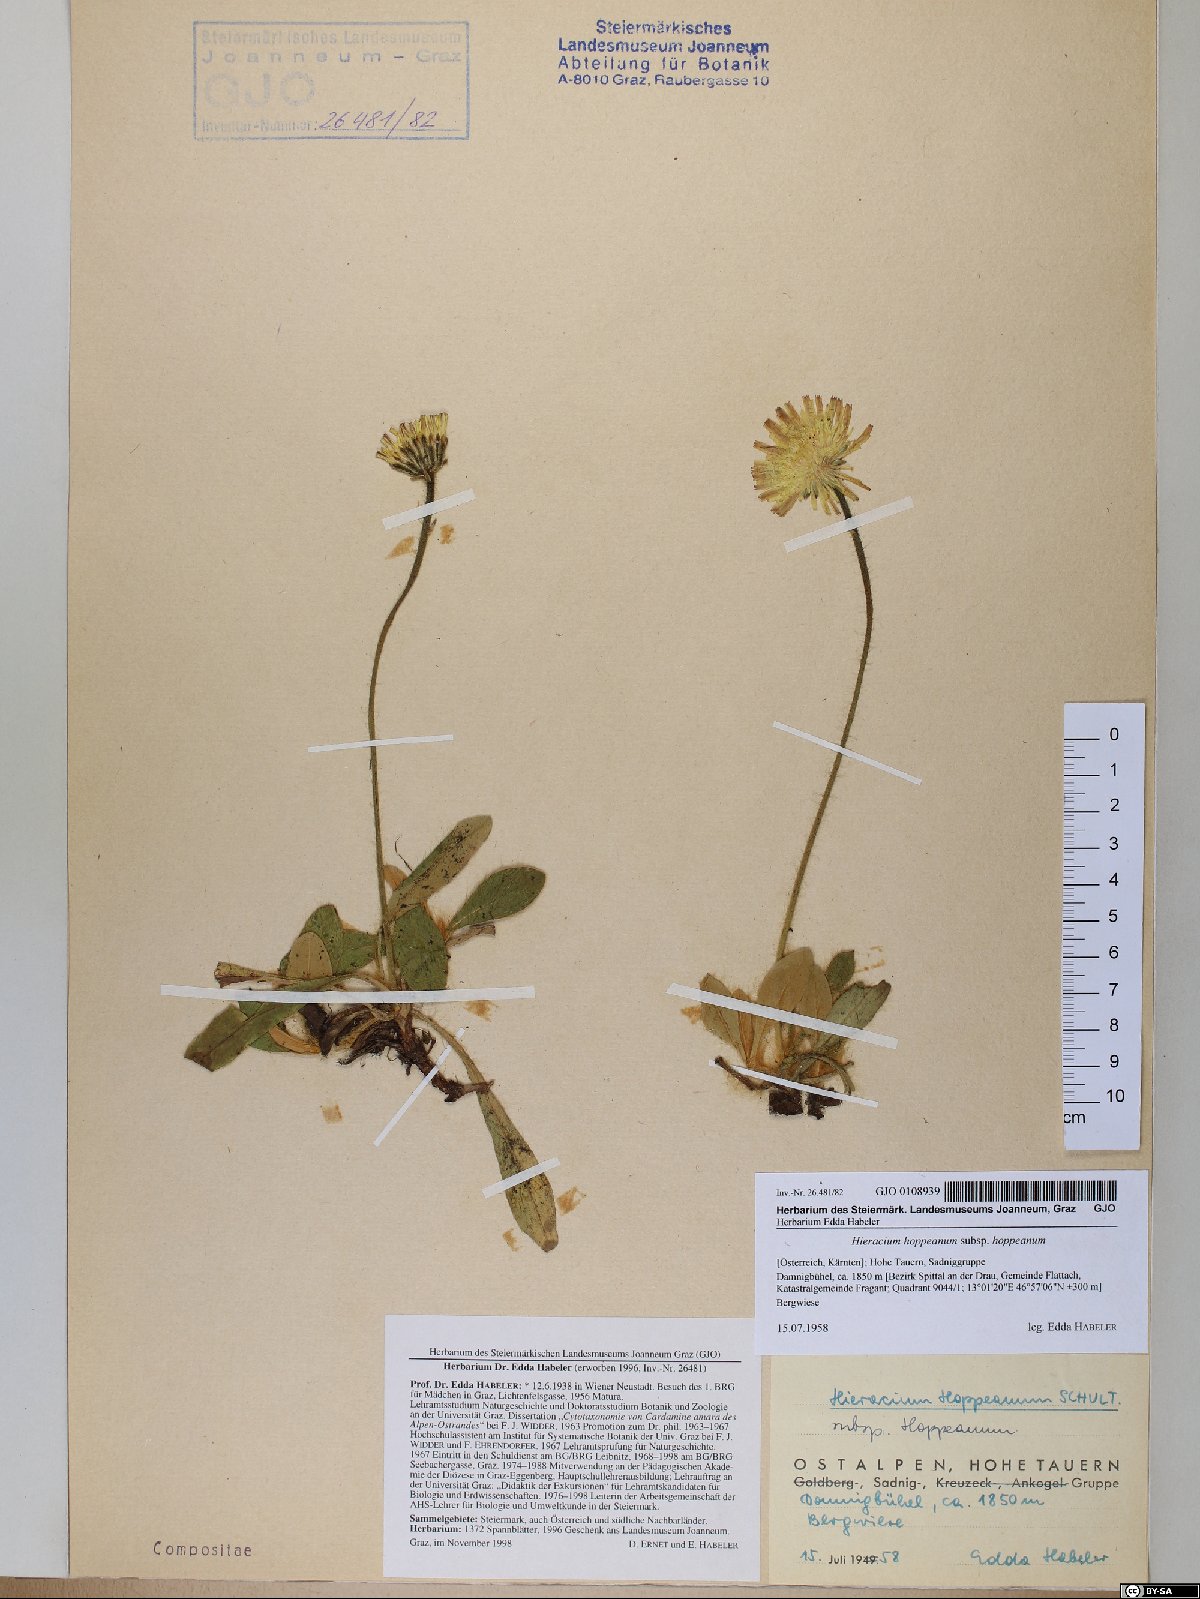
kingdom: Plantae
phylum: Tracheophyta
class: Magnoliopsida
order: Asterales
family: Asteraceae
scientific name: Asteraceae
